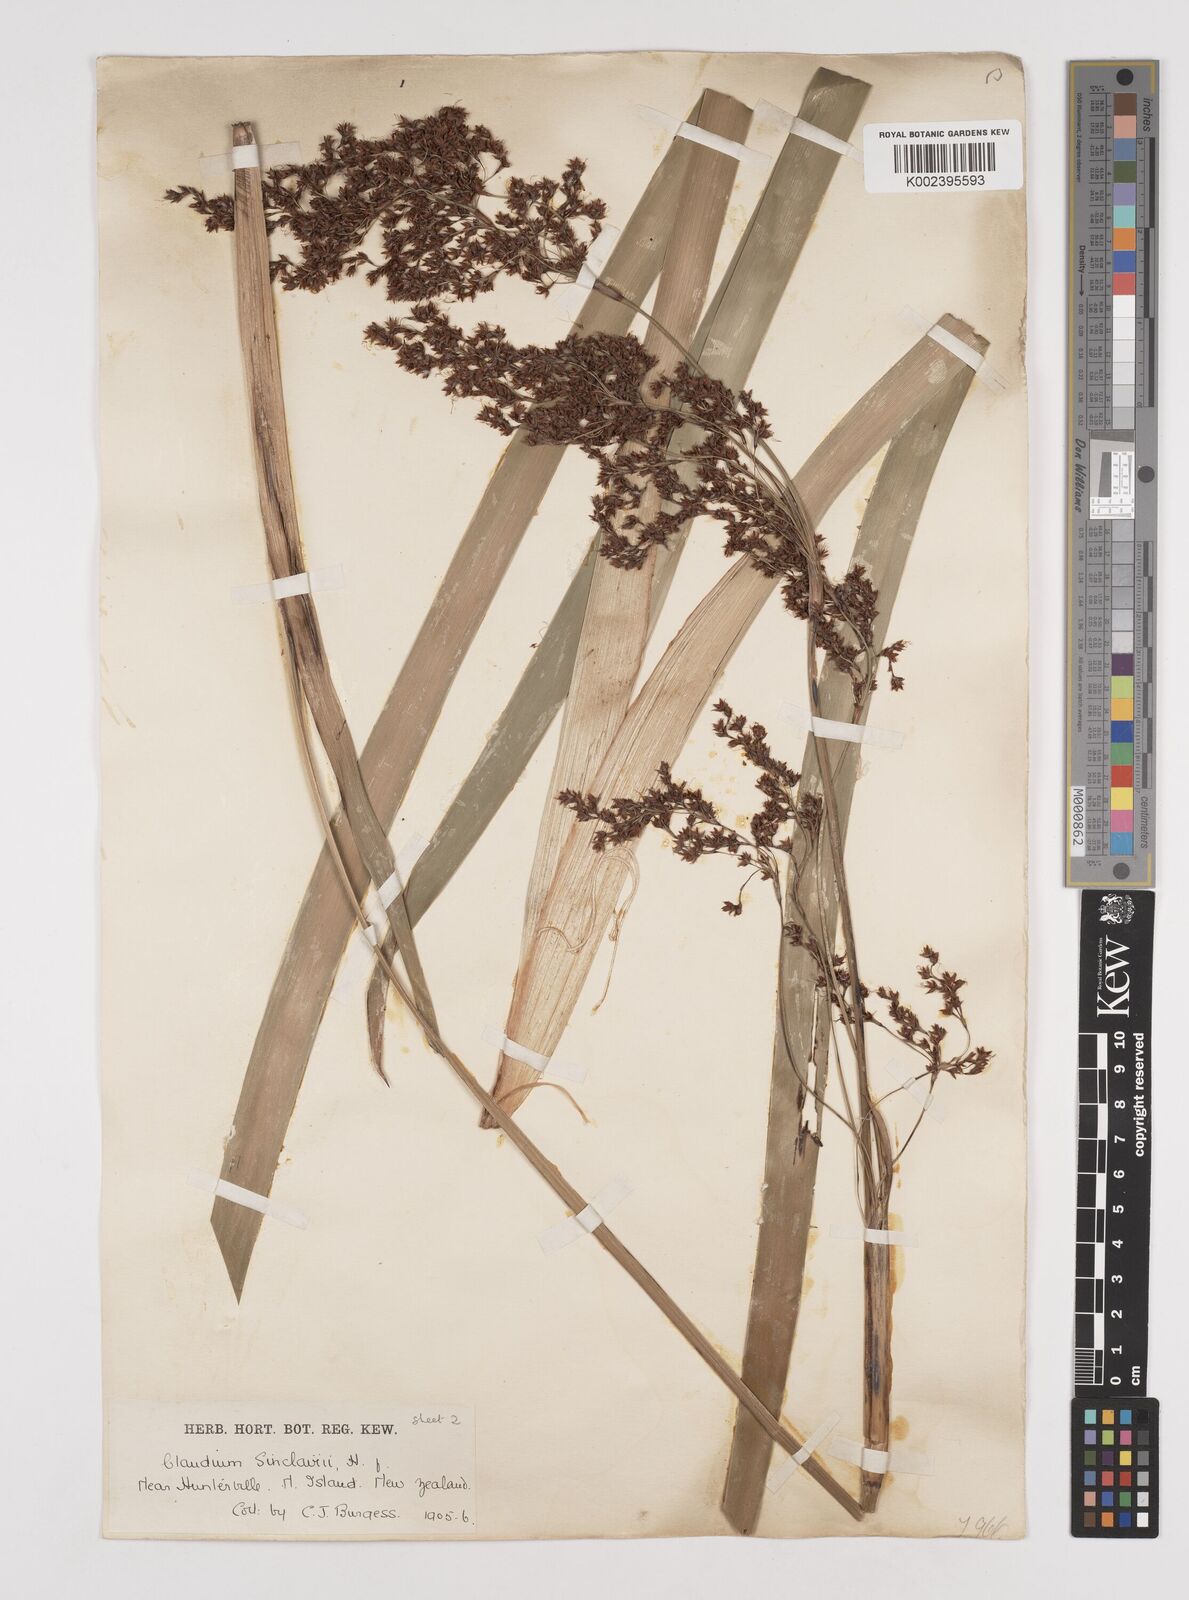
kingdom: Plantae
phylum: Tracheophyta
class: Liliopsida
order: Poales
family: Cyperaceae
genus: Machaerina
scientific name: Machaerina sinclairii
